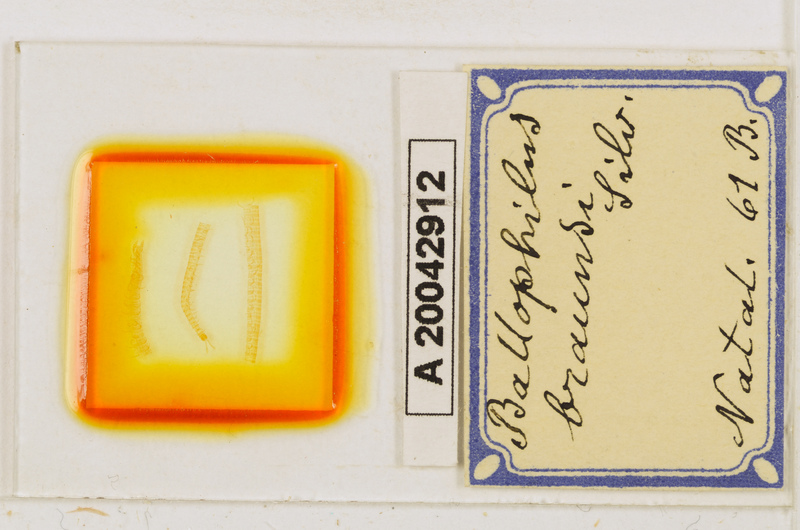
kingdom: Animalia
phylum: Arthropoda
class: Chilopoda
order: Geophilomorpha
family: Ballophilidae
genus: Ballophilus
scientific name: Ballophilus braunsi
